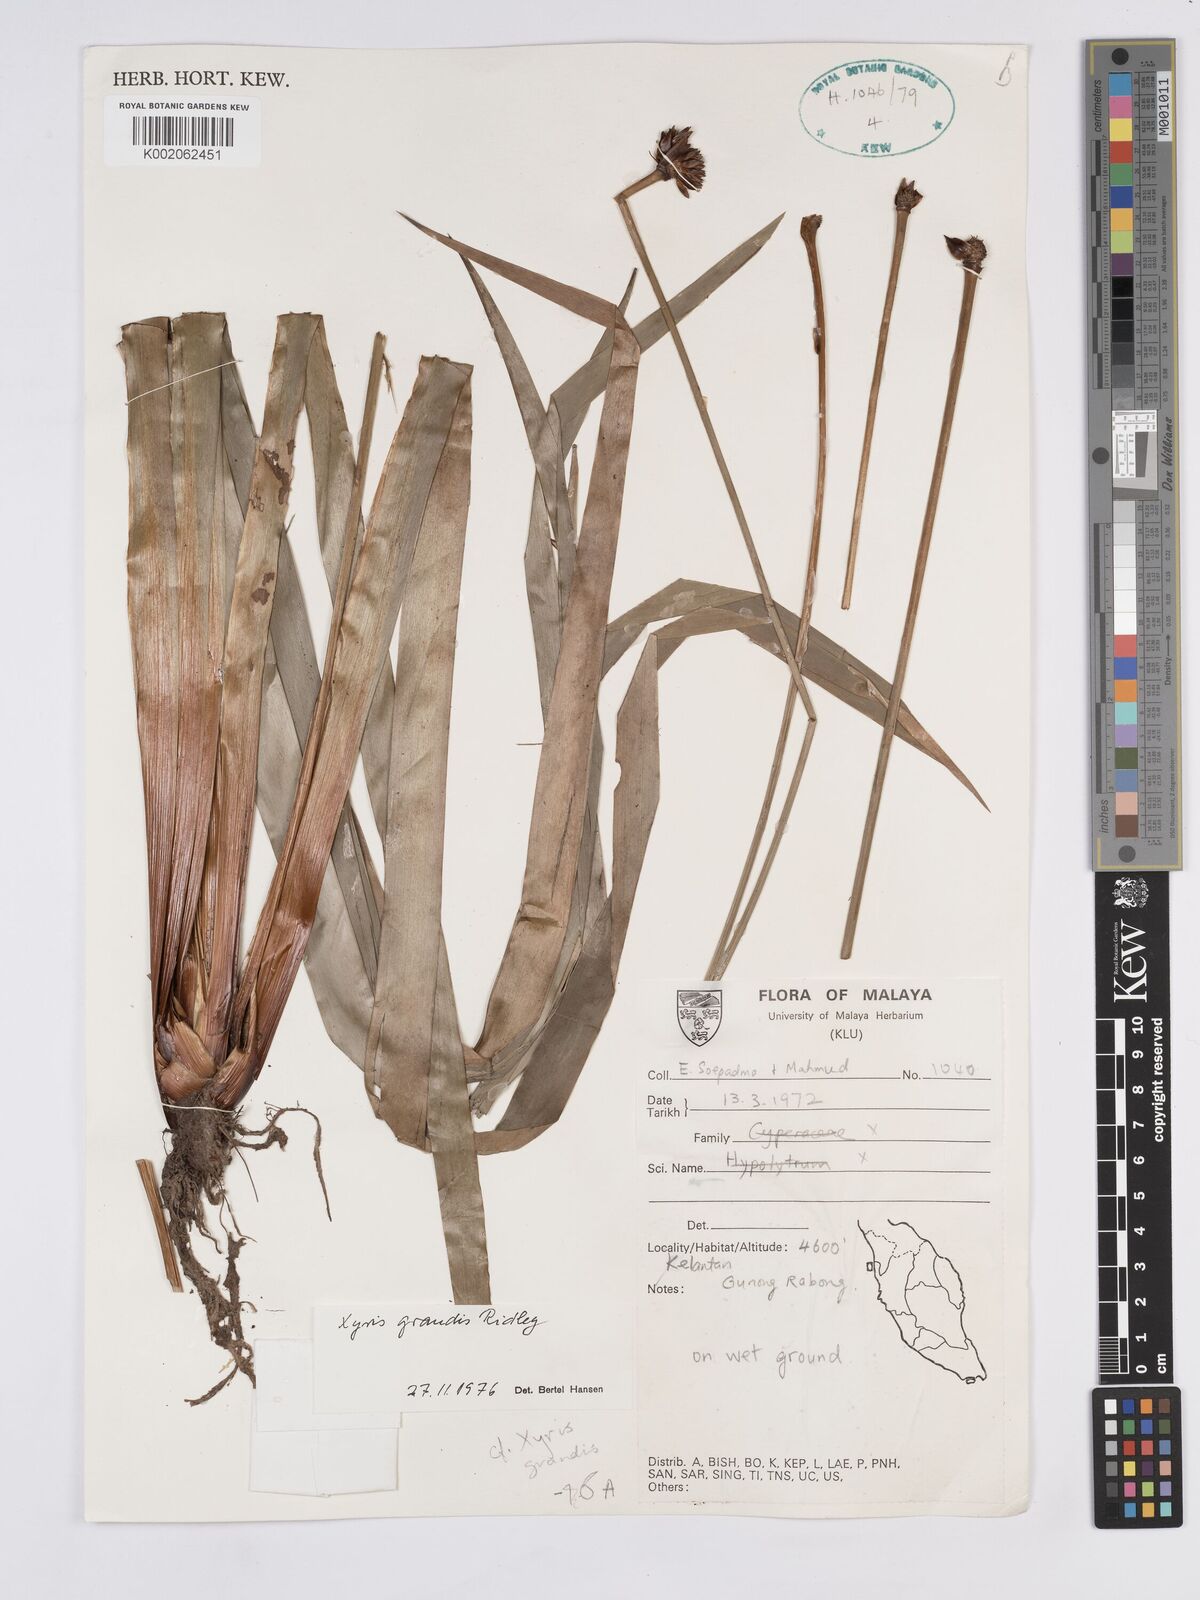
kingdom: Plantae
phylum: Tracheophyta
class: Liliopsida
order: Poales
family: Xyridaceae
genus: Xyris
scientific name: Xyris grandis
